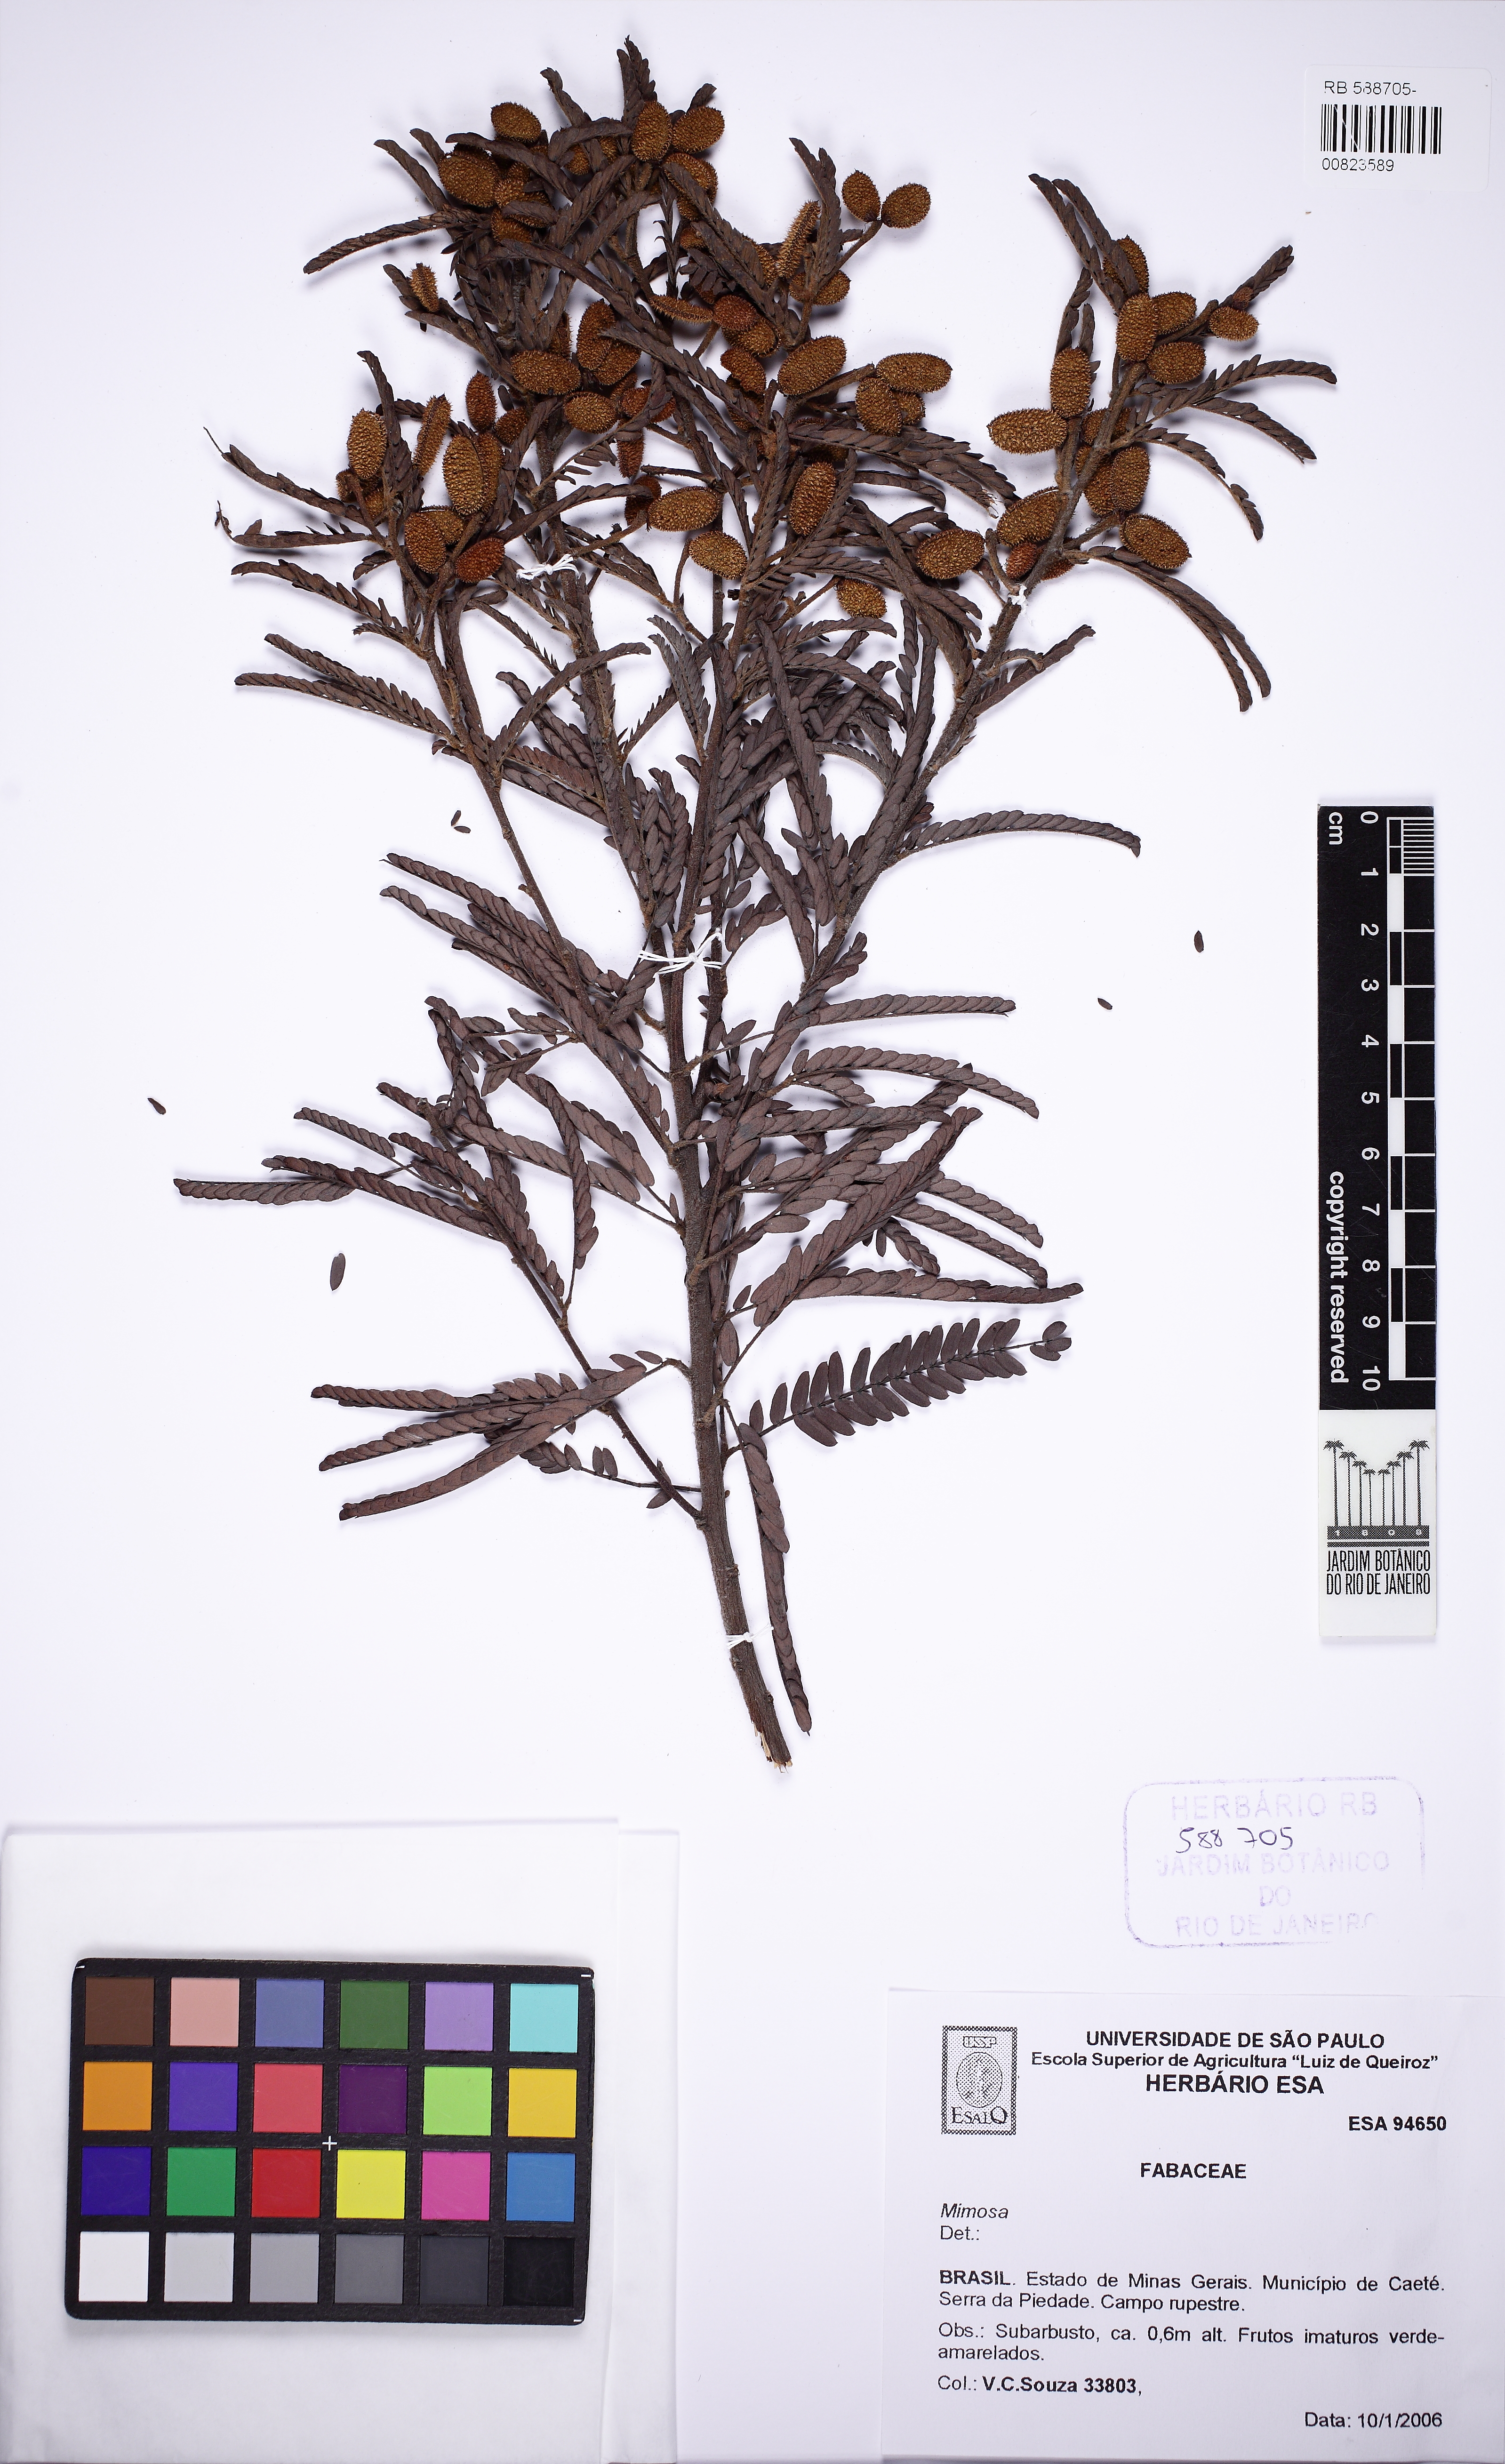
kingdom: Plantae
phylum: Tracheophyta
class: Magnoliopsida
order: Fabales
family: Fabaceae
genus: Mimosa
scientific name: Mimosa pogocephala
